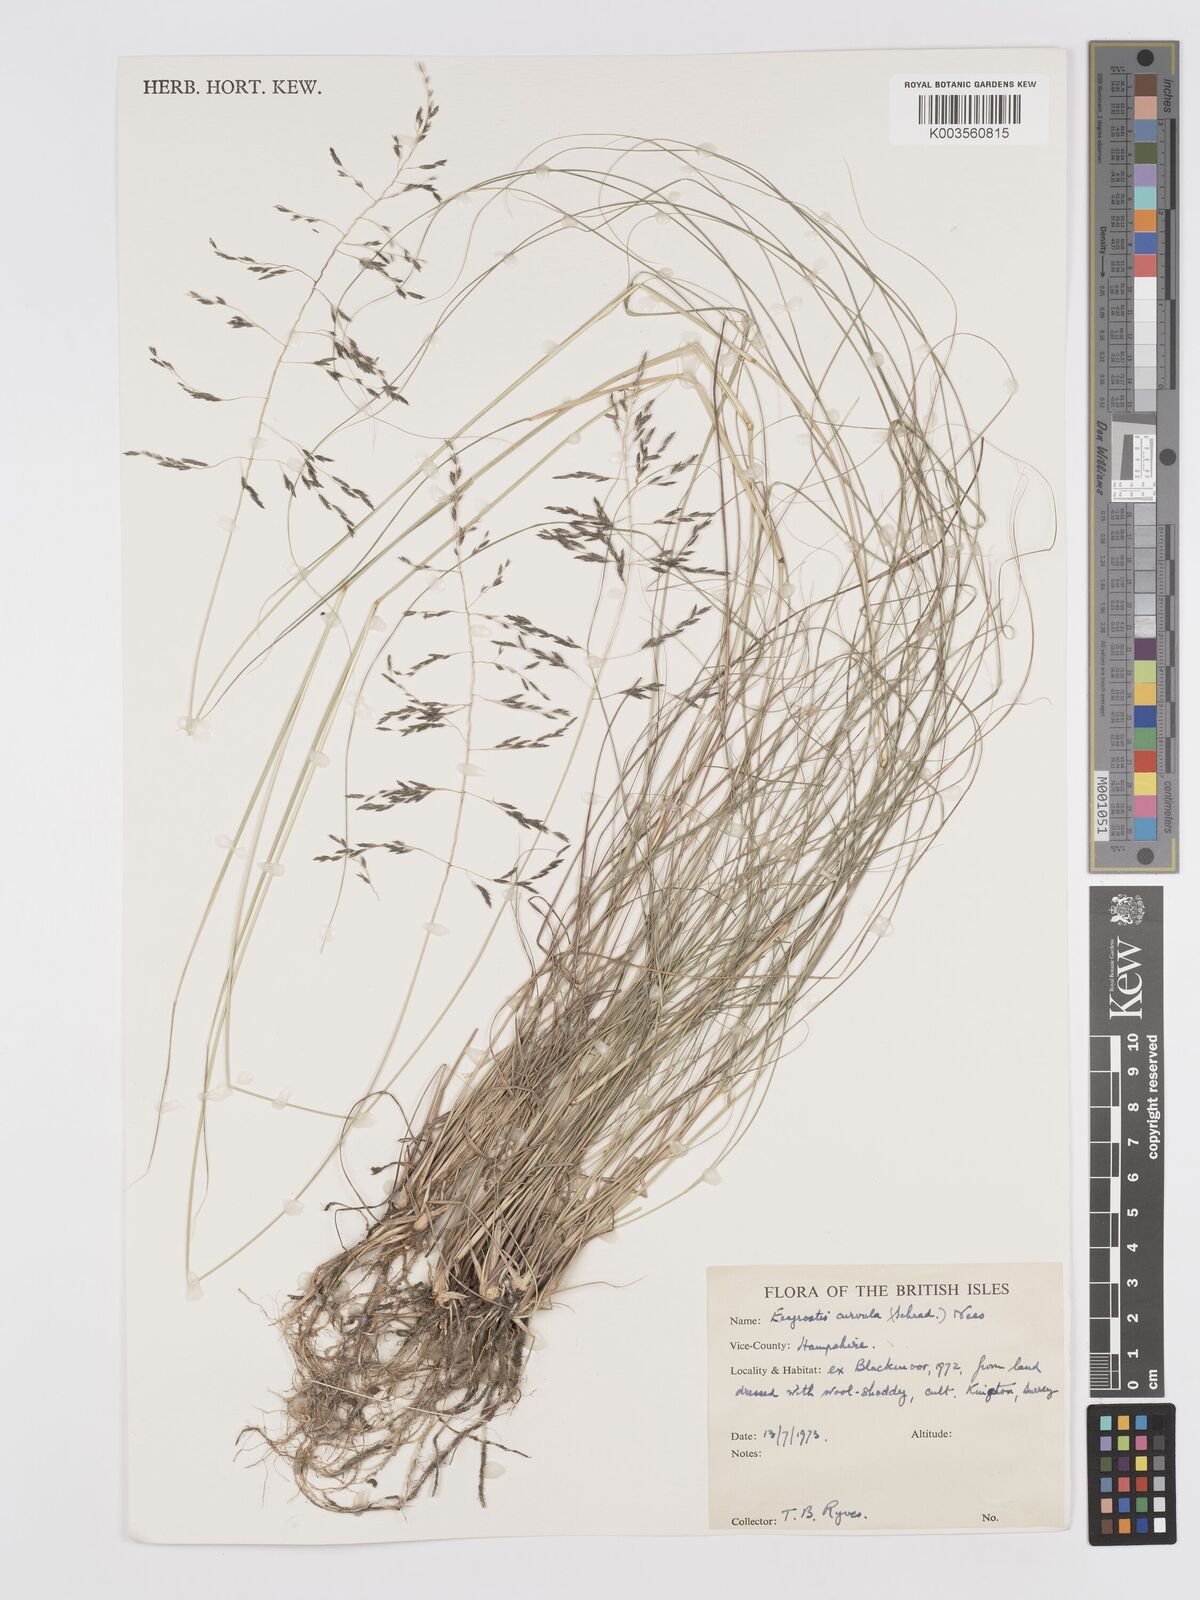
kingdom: Plantae
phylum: Tracheophyta
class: Liliopsida
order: Poales
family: Poaceae
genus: Eragrostis
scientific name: Eragrostis curvula
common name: African love-grass
